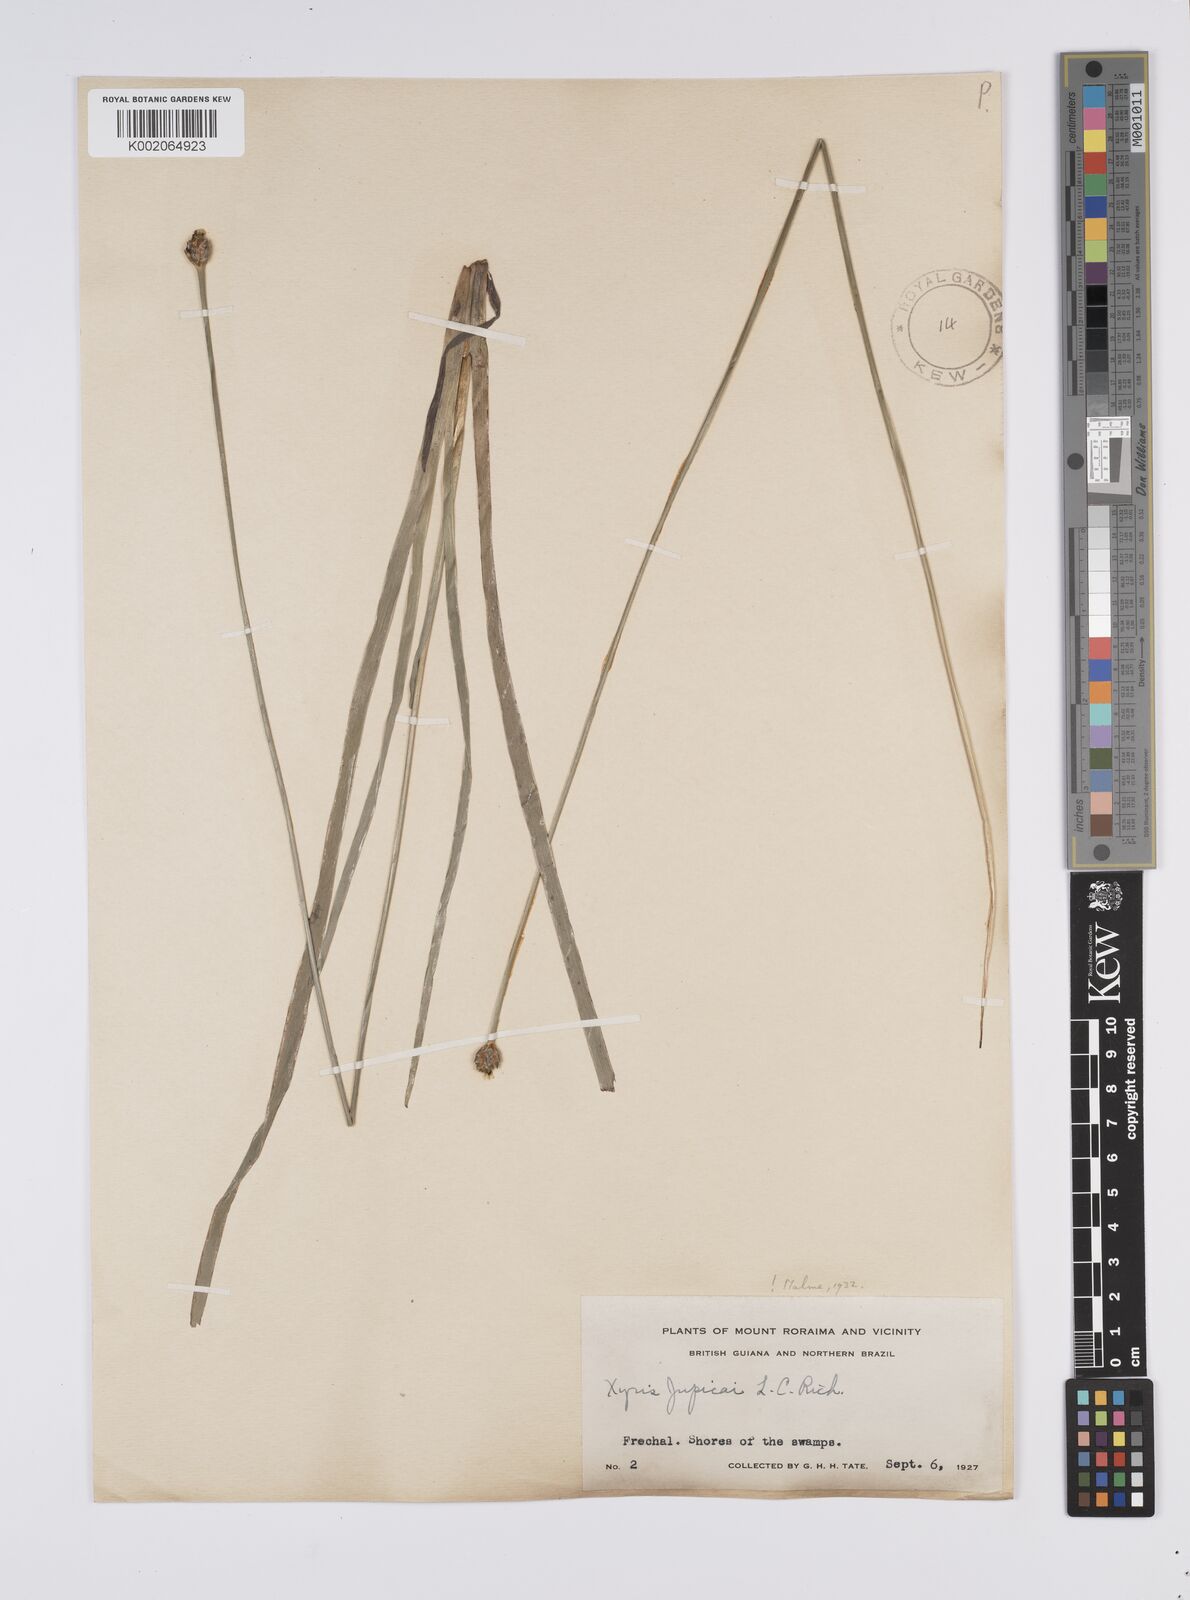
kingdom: Plantae
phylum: Tracheophyta
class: Liliopsida
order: Poales
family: Xyridaceae
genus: Xyris
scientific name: Xyris jupicai
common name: Richard's yelloweyed grass
